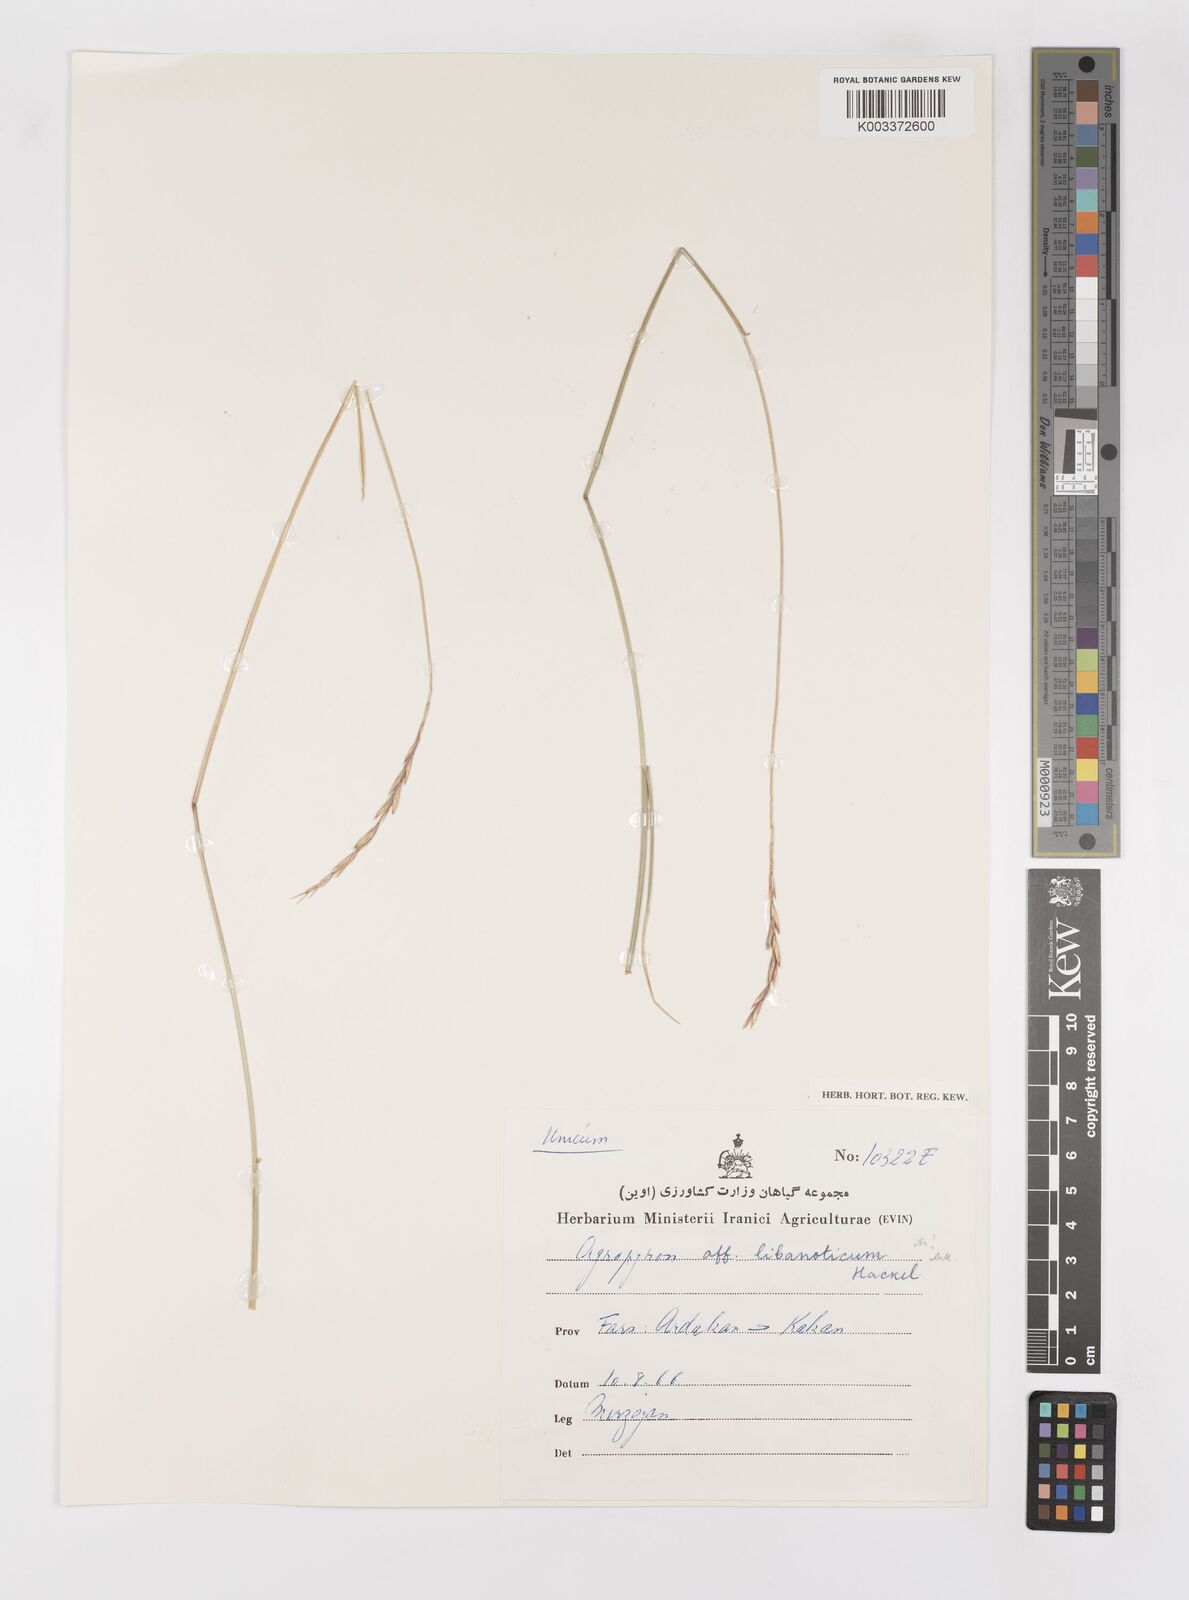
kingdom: Plantae
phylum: Tracheophyta
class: Liliopsida
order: Poales
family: Poaceae
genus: Elymus
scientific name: Elymus
